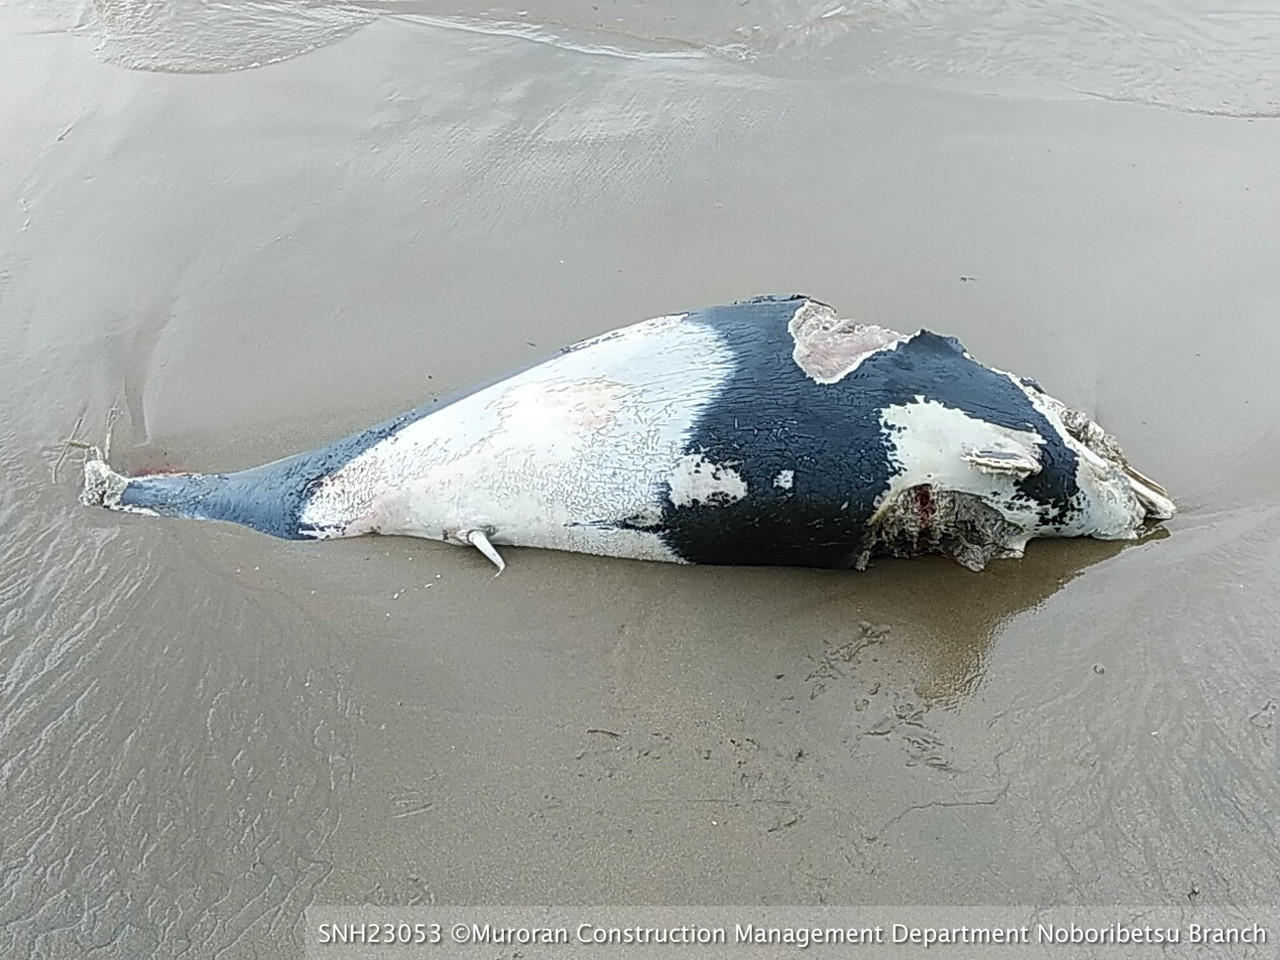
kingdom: Animalia
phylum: Chordata
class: Mammalia
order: Cetacea
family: Phocoenidae
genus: Phocoenoides
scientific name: Phocoenoides dalli
